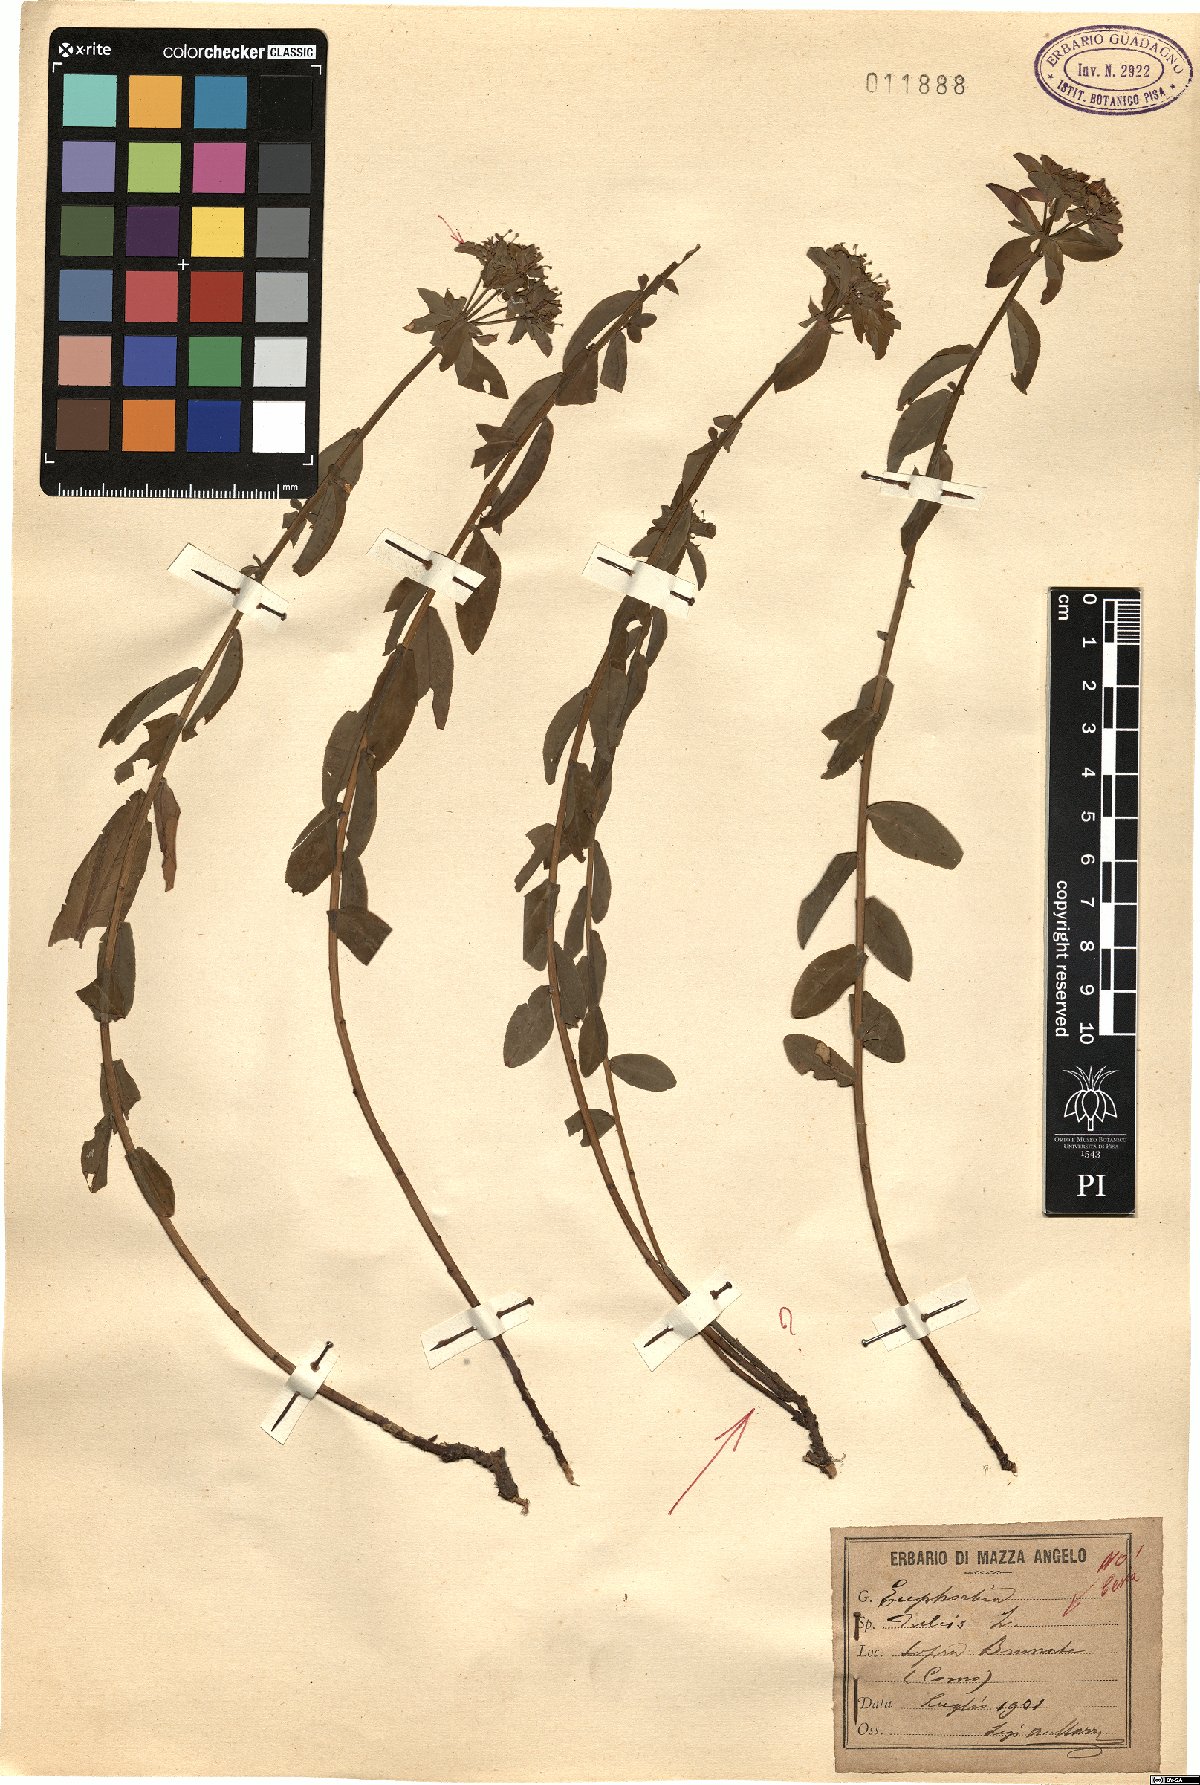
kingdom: Plantae
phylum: Tracheophyta
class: Magnoliopsida
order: Malpighiales
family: Euphorbiaceae
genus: Euphorbia
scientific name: Euphorbia dulcis
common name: Sweet spurge
